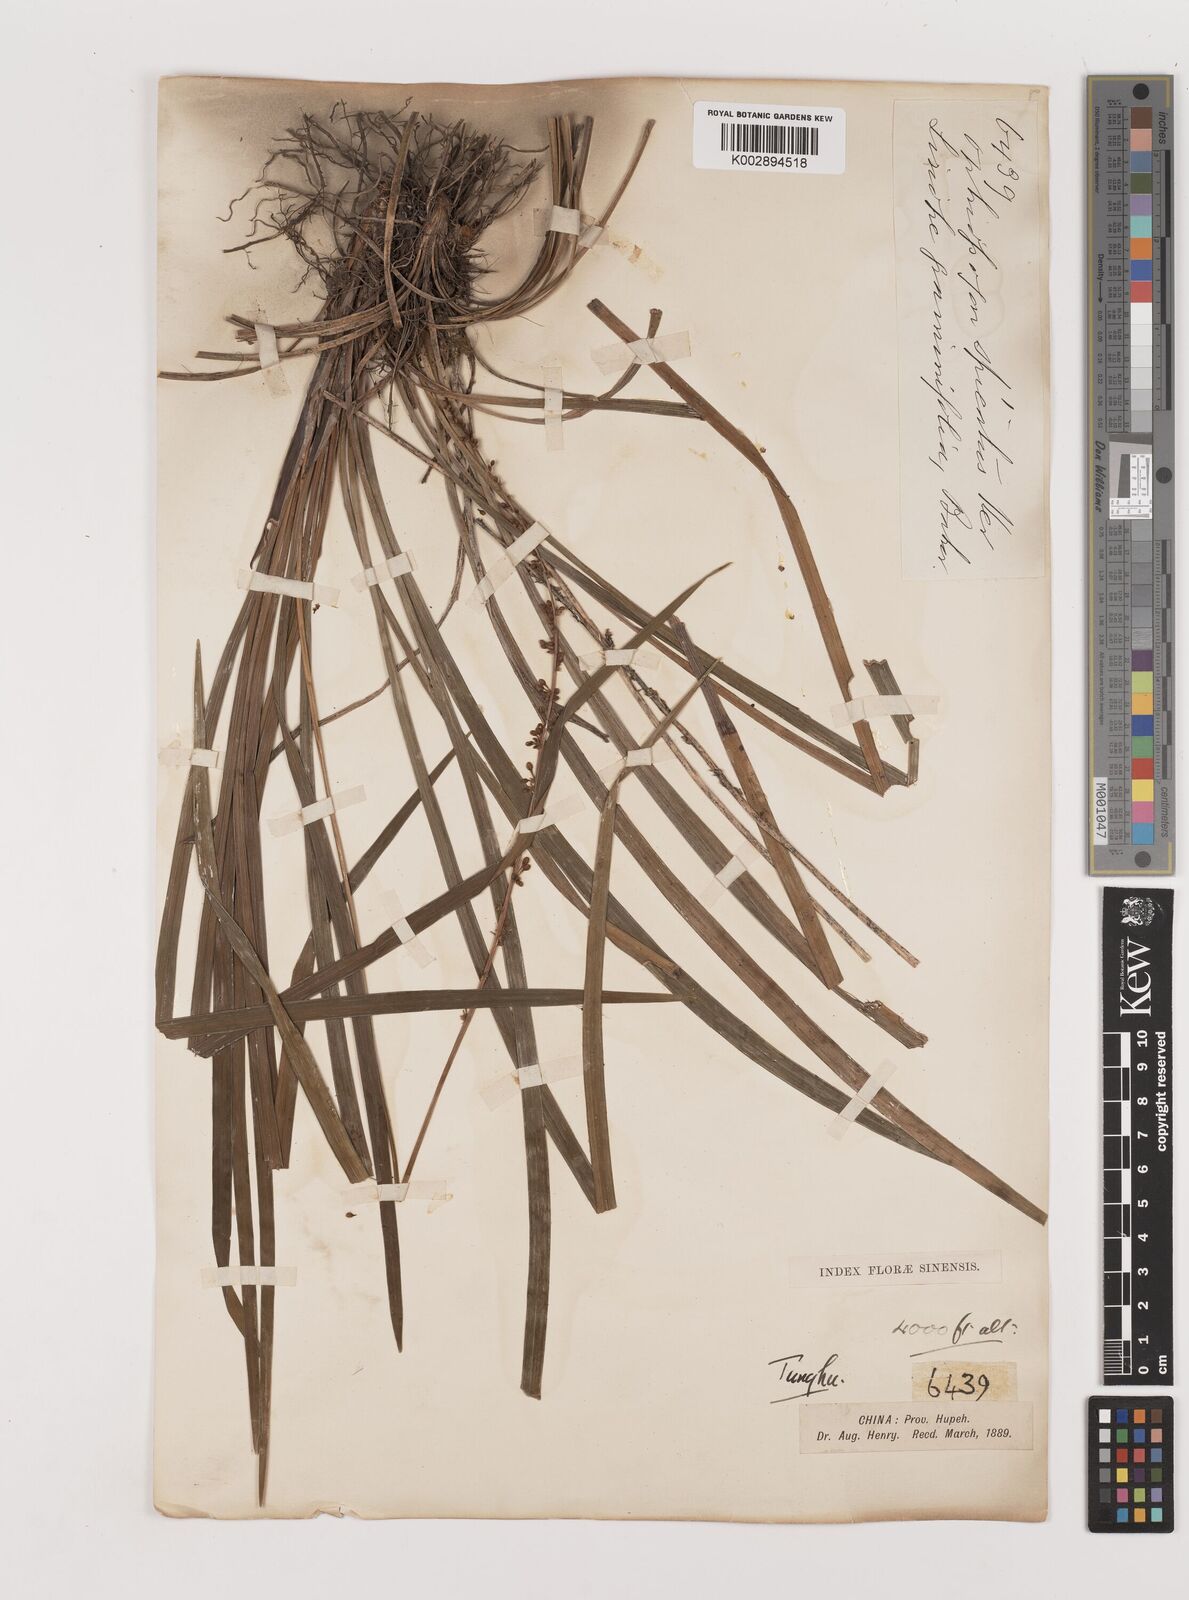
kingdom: Plantae
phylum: Tracheophyta
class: Liliopsida
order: Asparagales
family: Asparagaceae
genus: Liriope
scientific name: Liriope spicata
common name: Creeping liriope
